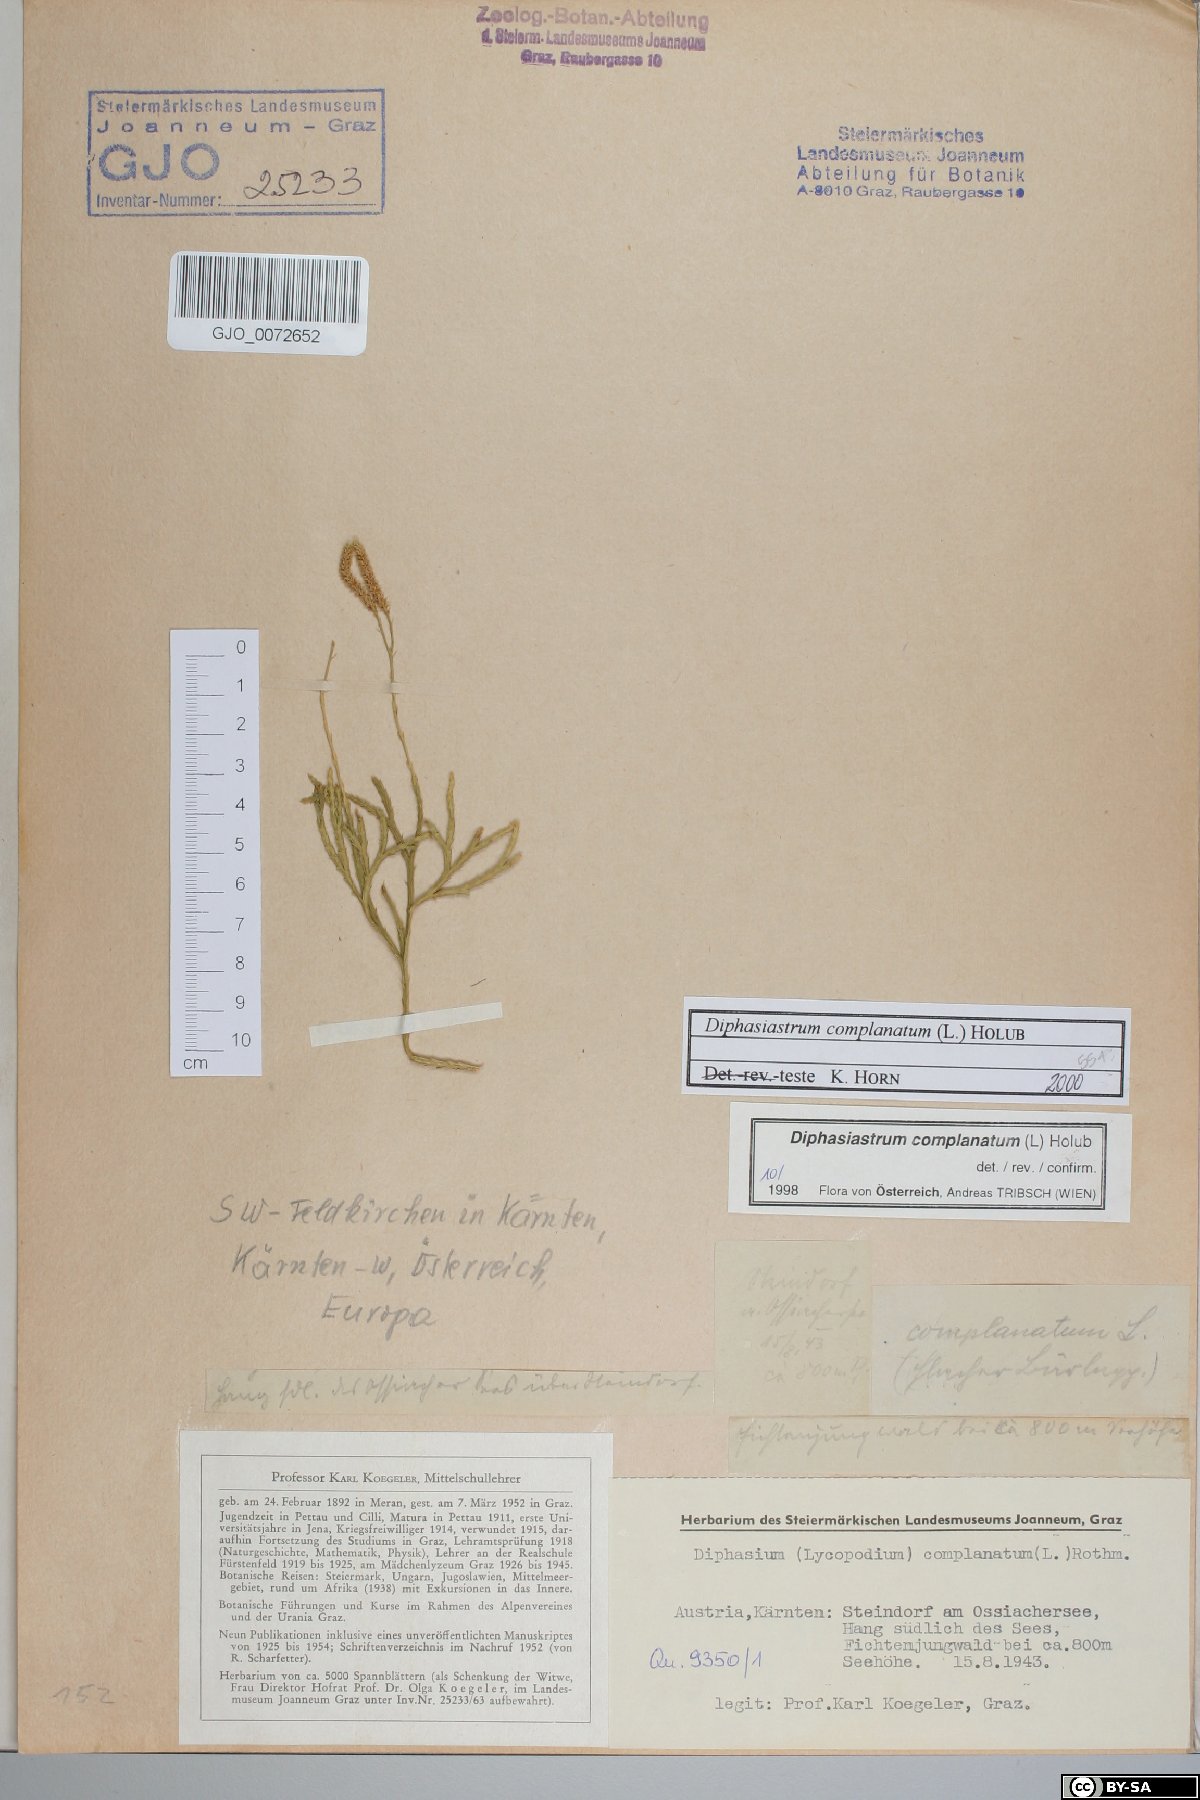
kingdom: Plantae
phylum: Tracheophyta
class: Lycopodiopsida
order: Lycopodiales
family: Lycopodiaceae
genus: Diphasiastrum
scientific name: Diphasiastrum complanatum
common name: Northern running-pine
